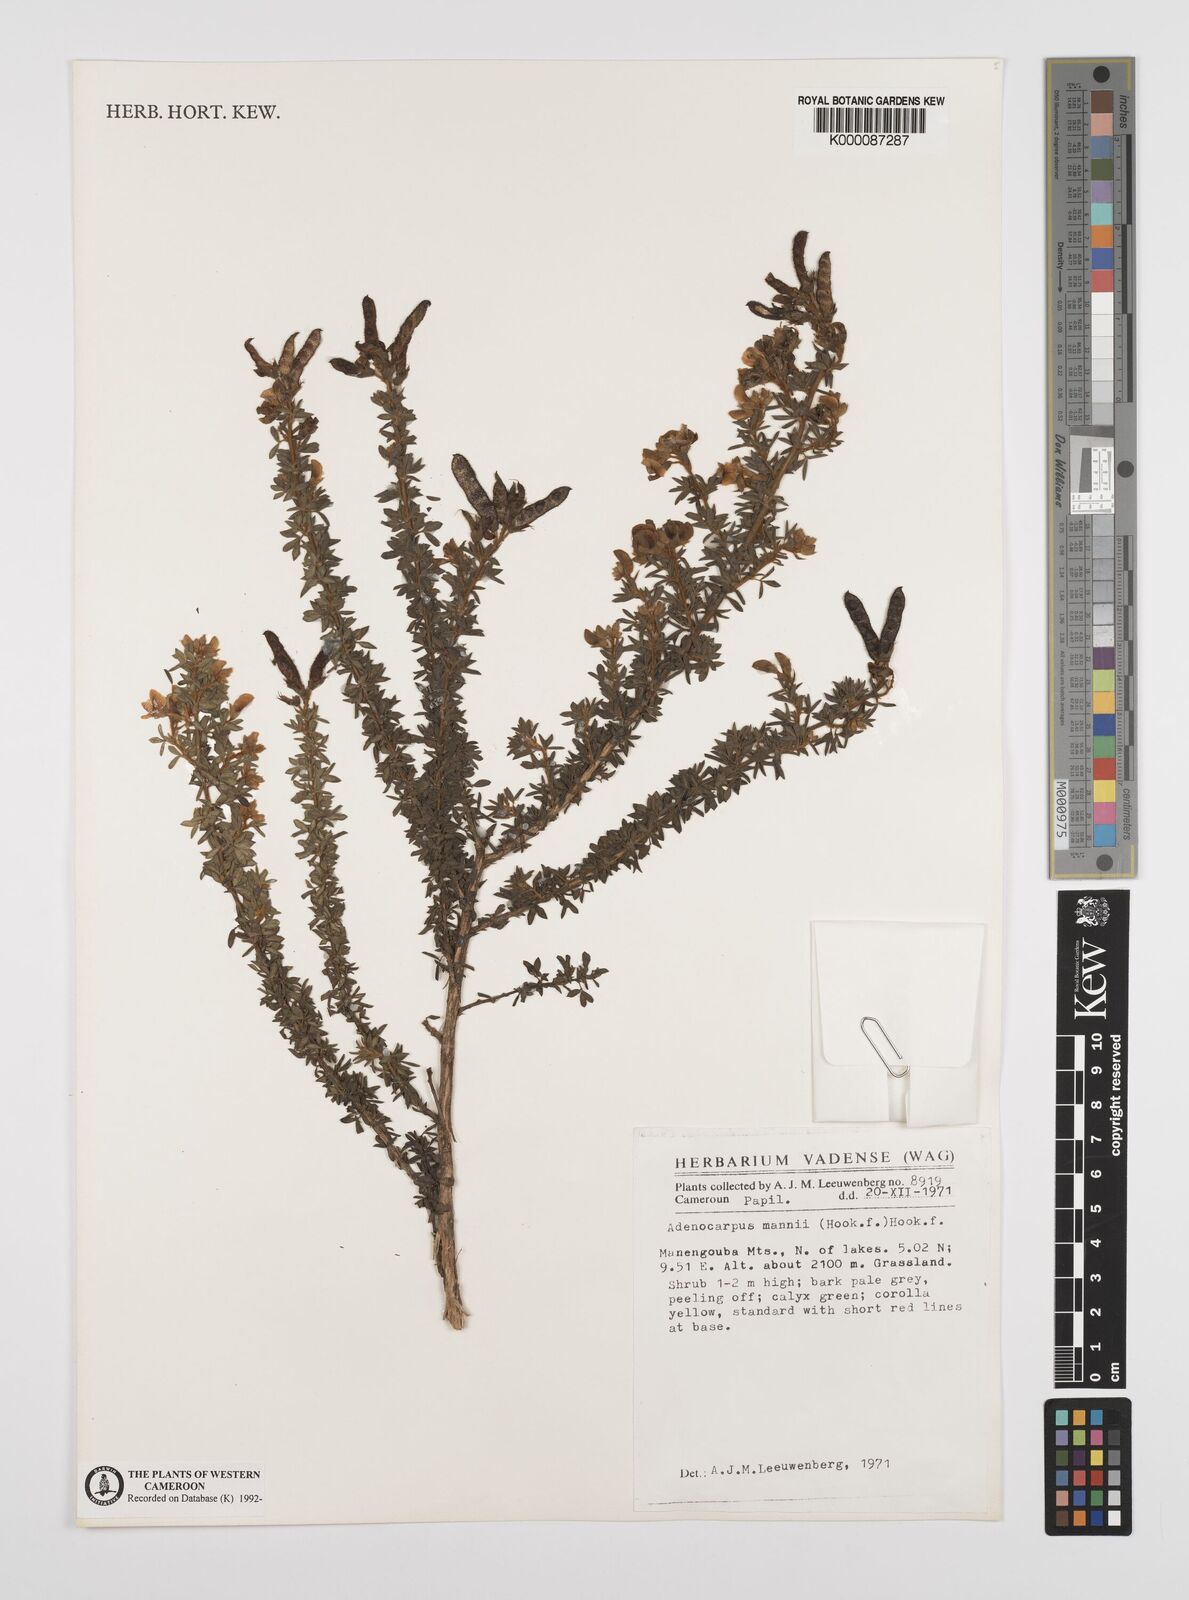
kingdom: Plantae
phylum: Tracheophyta
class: Magnoliopsida
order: Fabales
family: Fabaceae
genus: Adenocarpus
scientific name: Adenocarpus mannii
